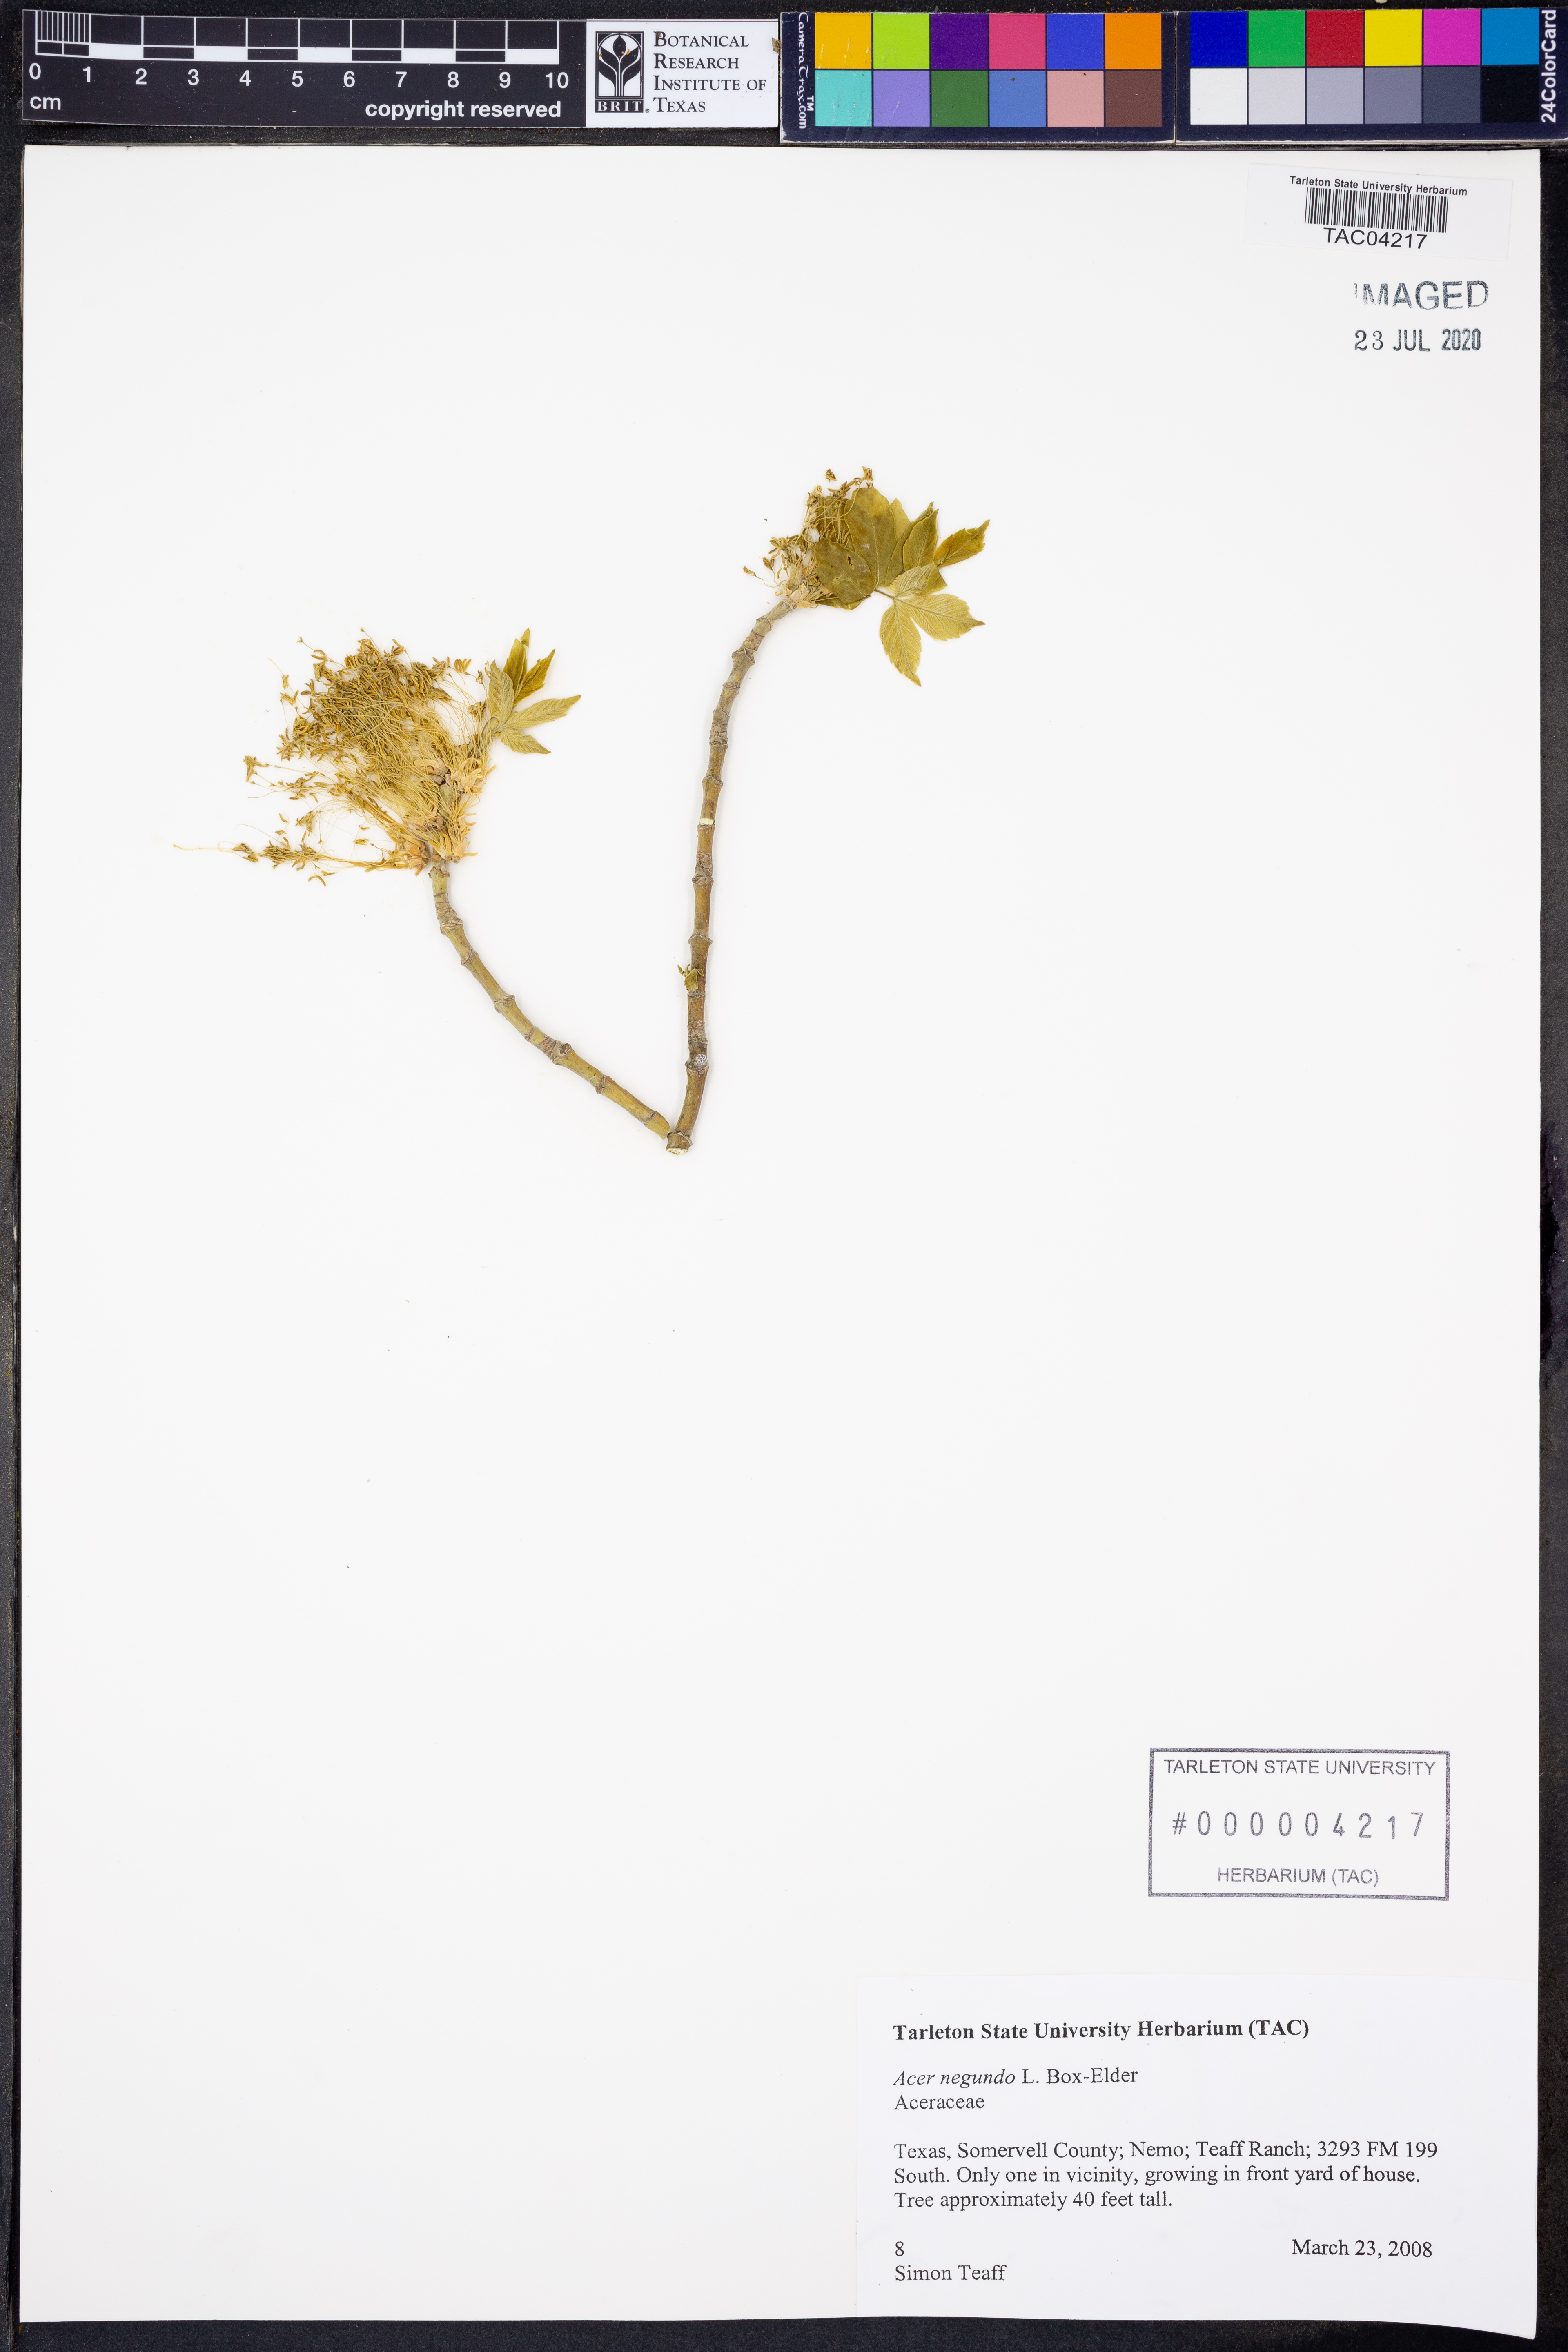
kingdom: Plantae
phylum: Tracheophyta
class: Magnoliopsida
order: Sapindales
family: Sapindaceae
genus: Acer
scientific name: Acer negundo
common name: Ashleaf maple
